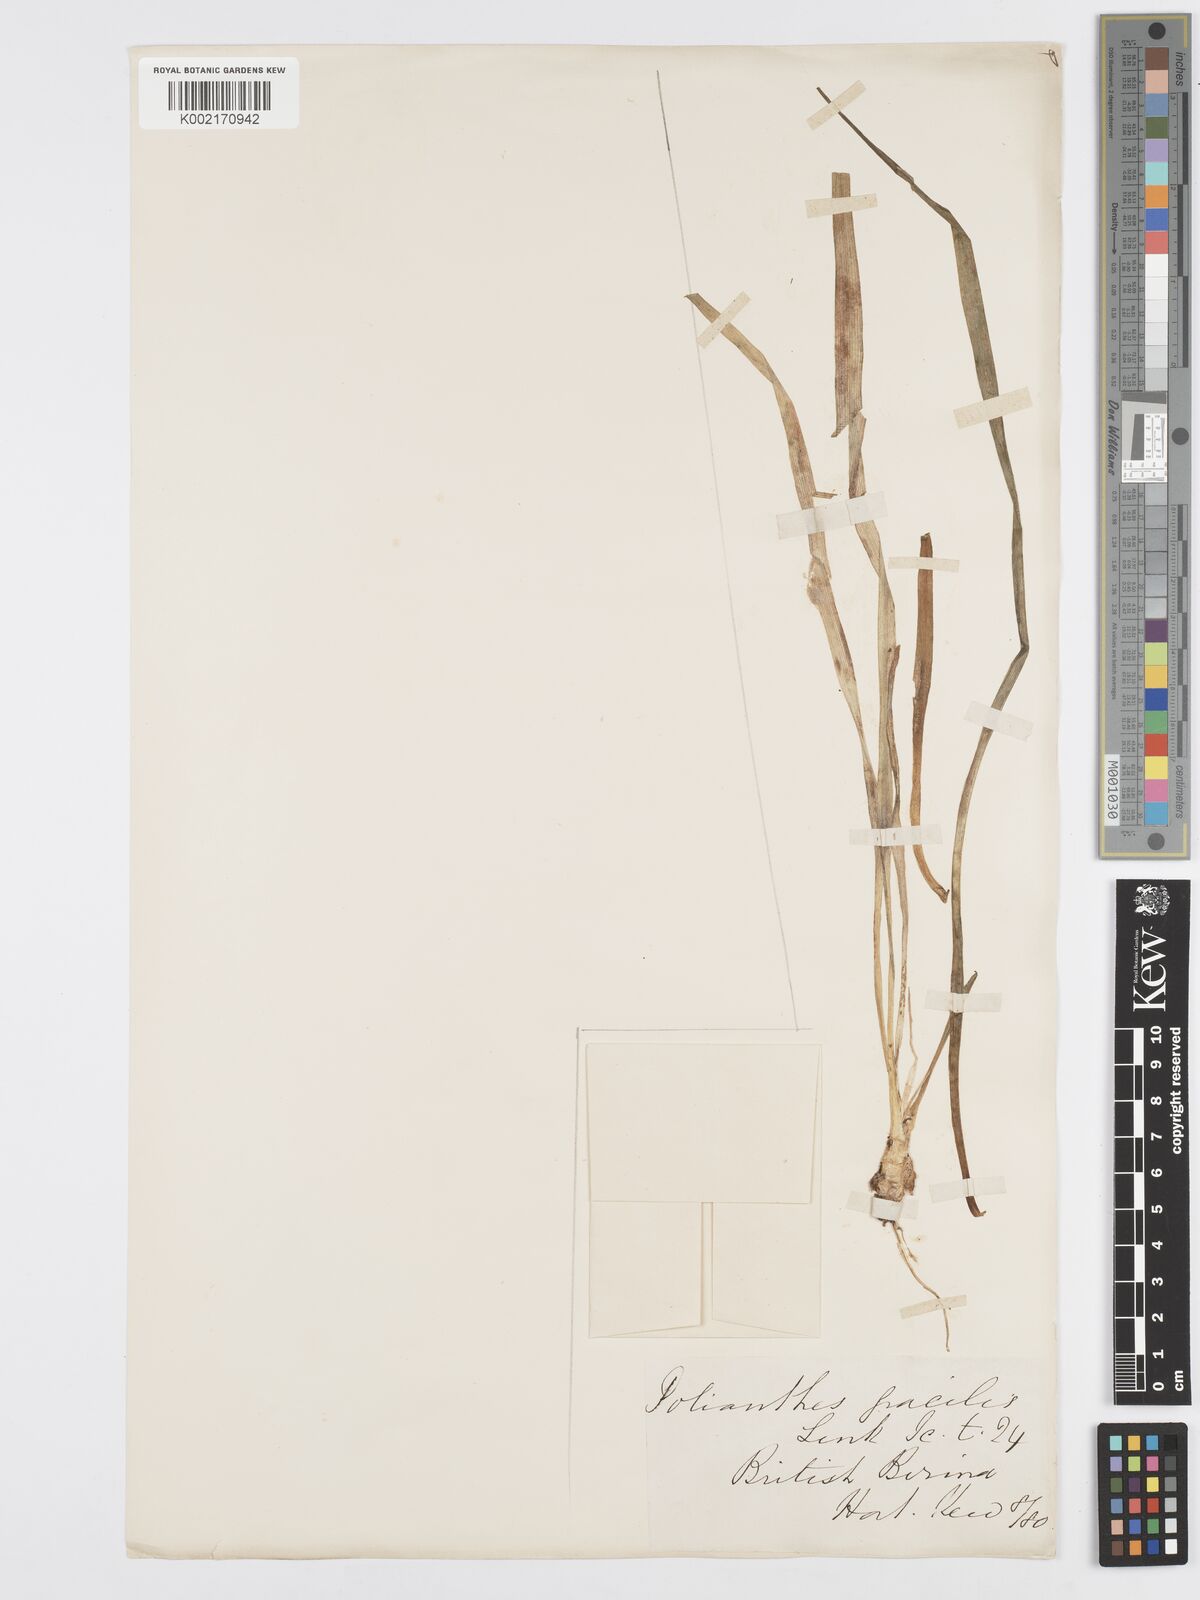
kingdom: Plantae
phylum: Tracheophyta
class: Liliopsida
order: Asparagales
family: Asparagaceae
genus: Agave
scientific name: Agave amica
